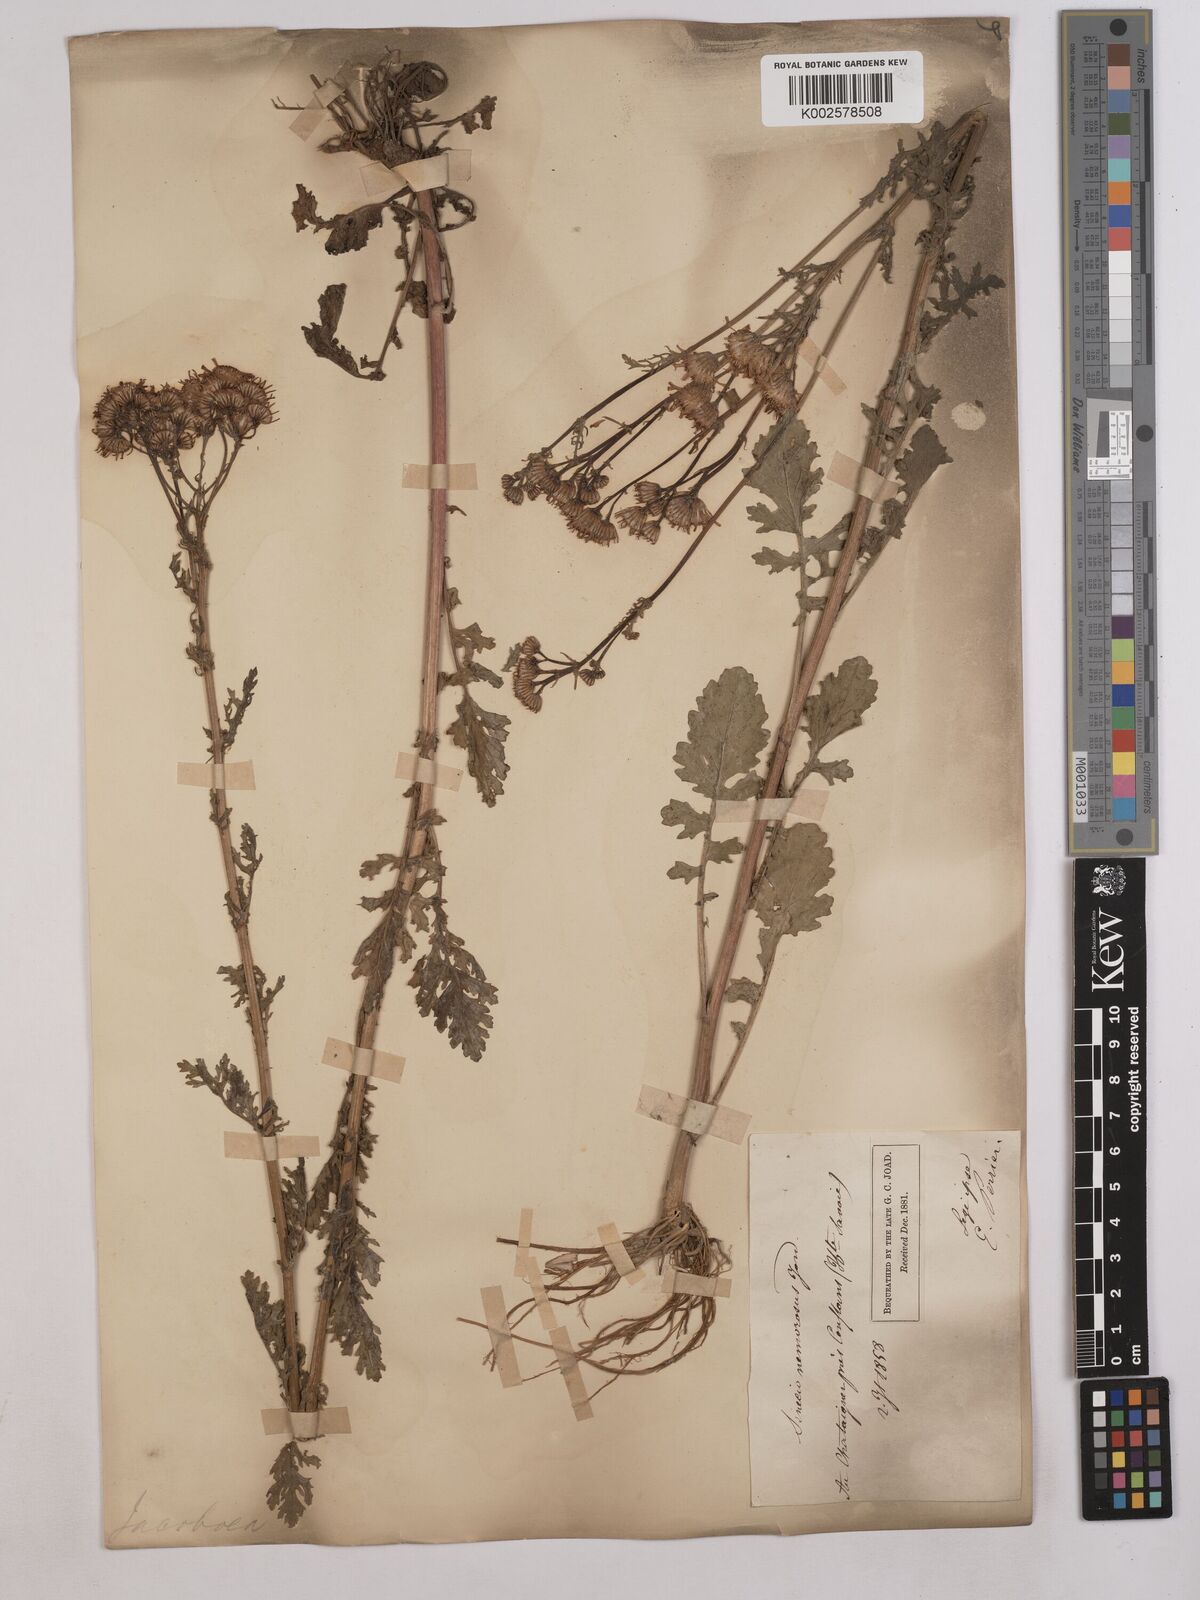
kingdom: Plantae
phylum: Tracheophyta
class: Magnoliopsida
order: Asterales
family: Asteraceae
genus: Senecio
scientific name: Senecio
